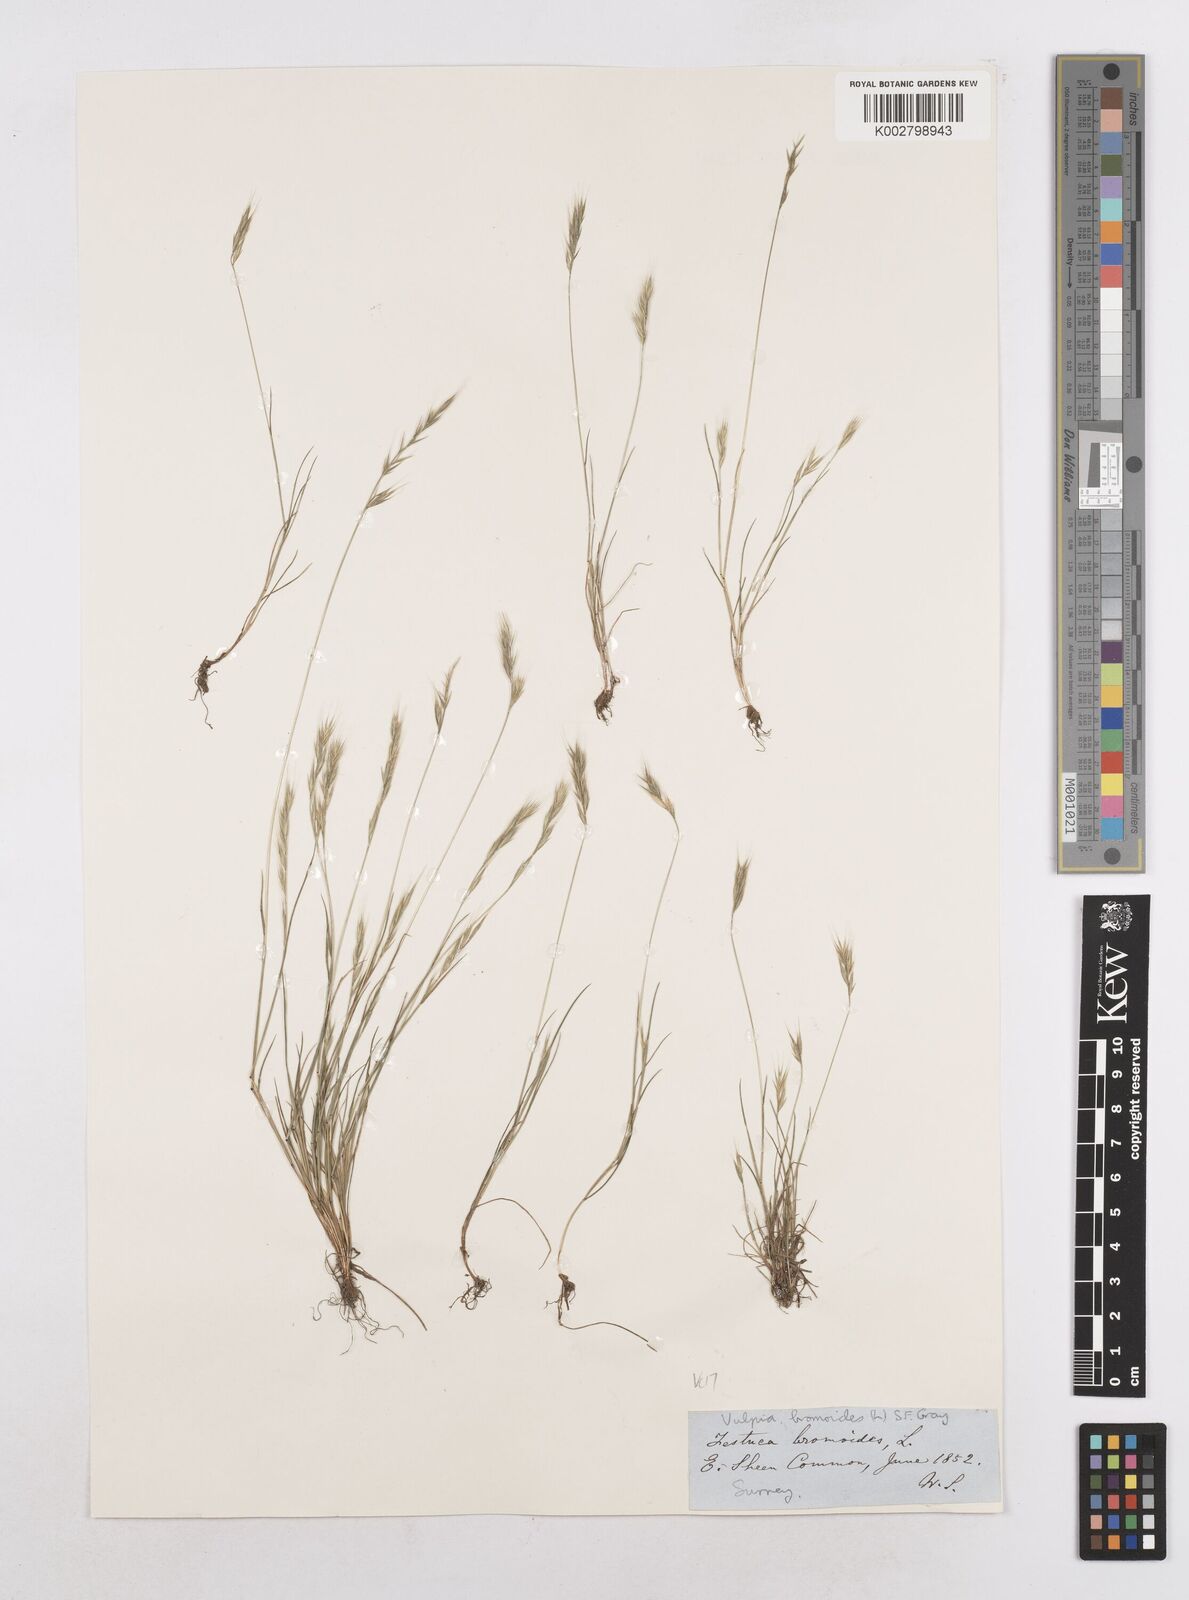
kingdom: Plantae
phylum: Tracheophyta
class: Liliopsida
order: Poales
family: Poaceae
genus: Festuca
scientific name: Festuca bromoides
